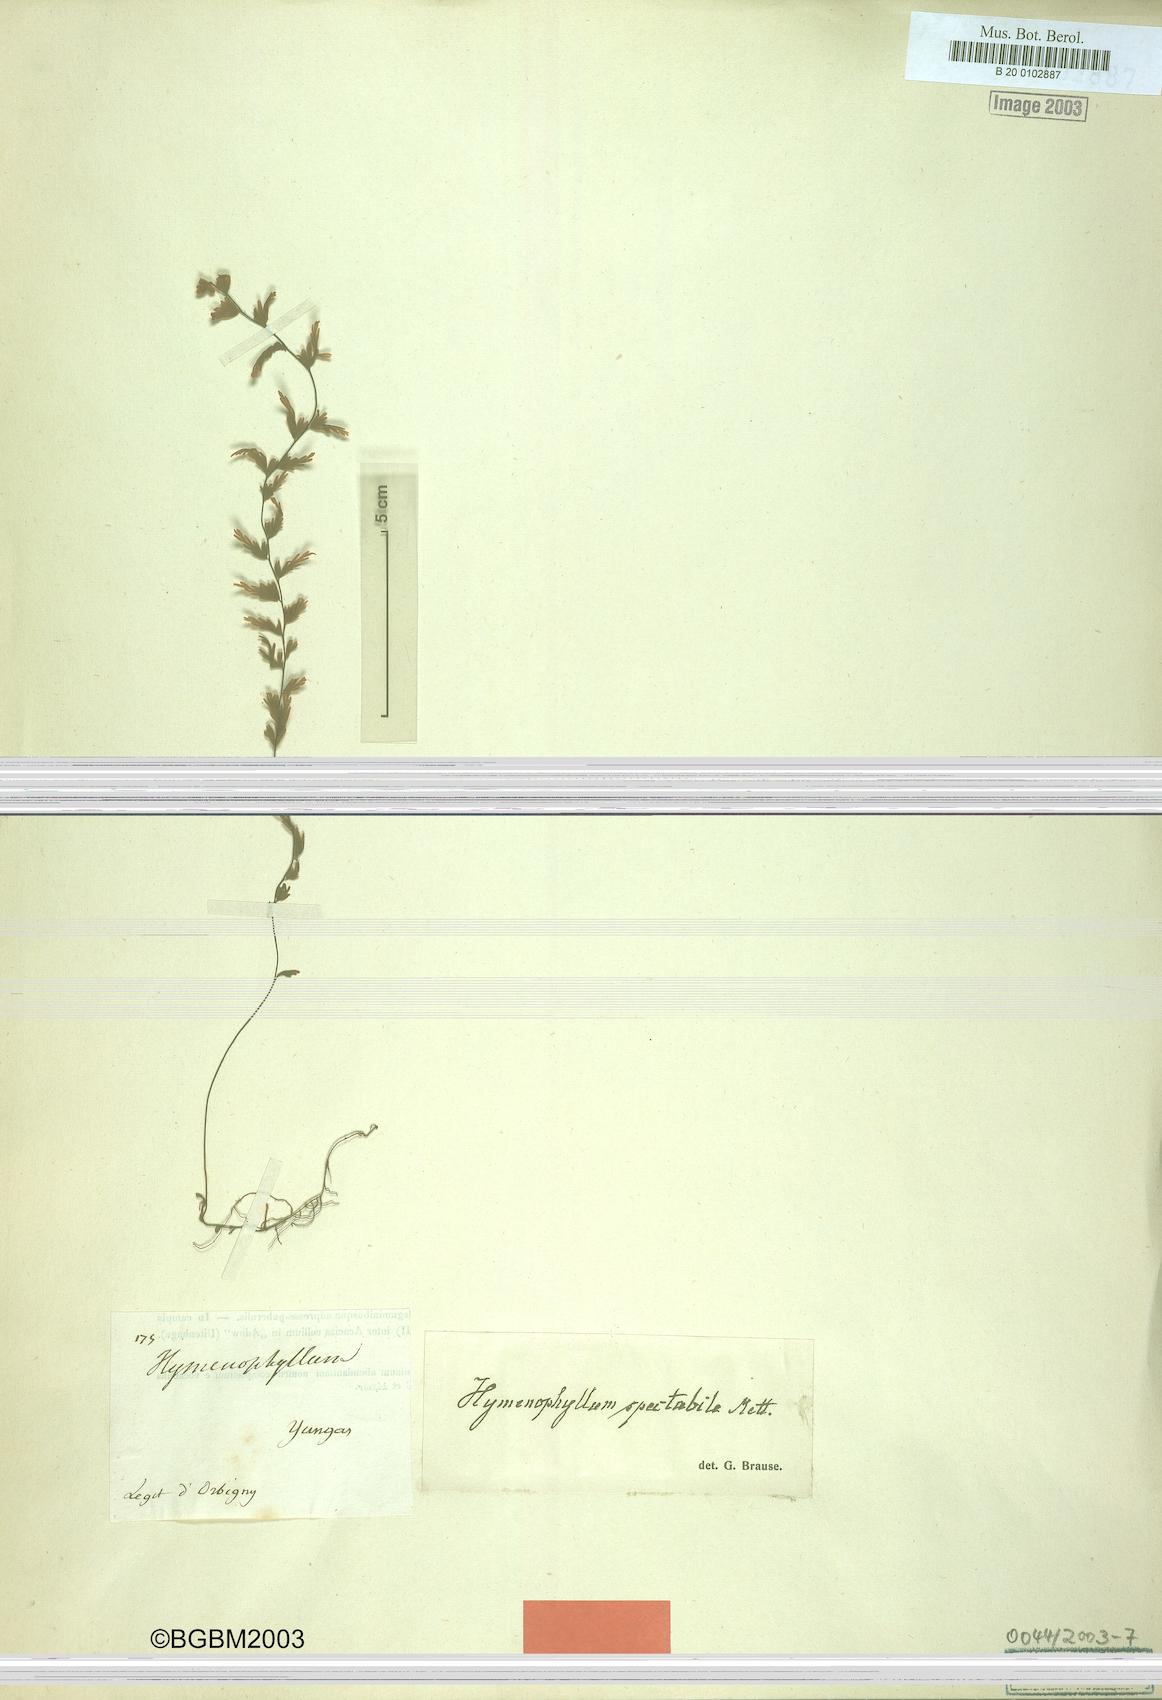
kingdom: Plantae
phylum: Tracheophyta
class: Polypodiopsida
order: Hymenophyllales
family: Hymenophyllaceae
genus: Hymenophyllum
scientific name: Hymenophyllum lindenii
